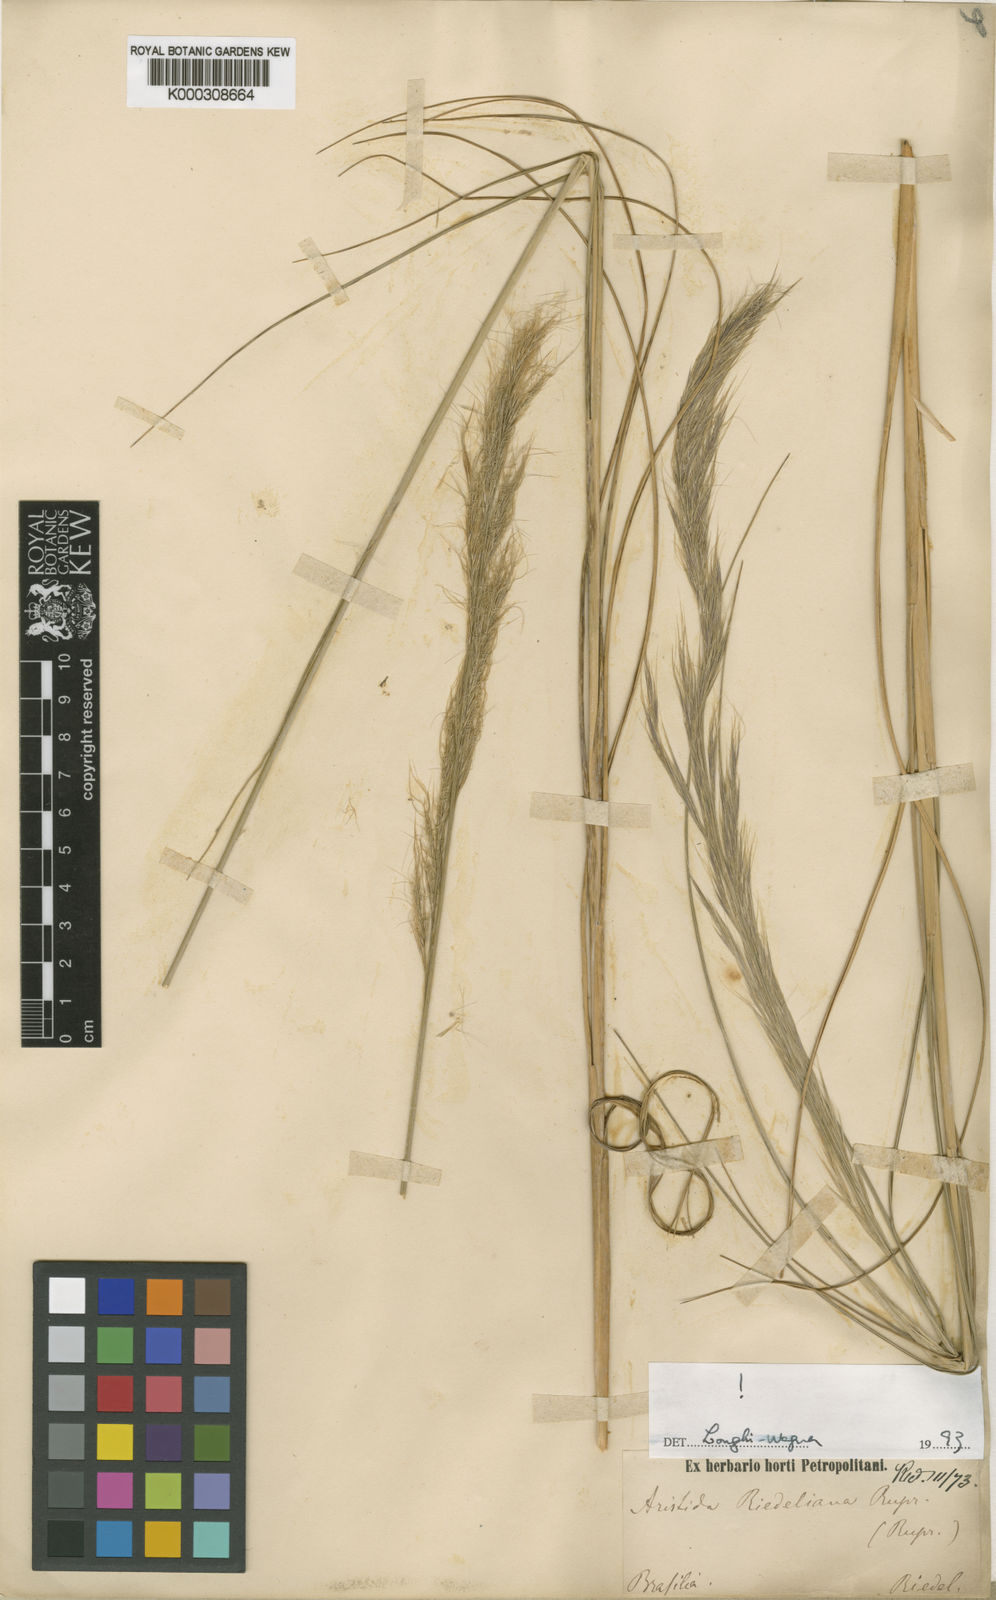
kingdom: Plantae
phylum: Tracheophyta
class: Liliopsida
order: Poales
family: Poaceae
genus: Aristida
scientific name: Aristida recurvata
